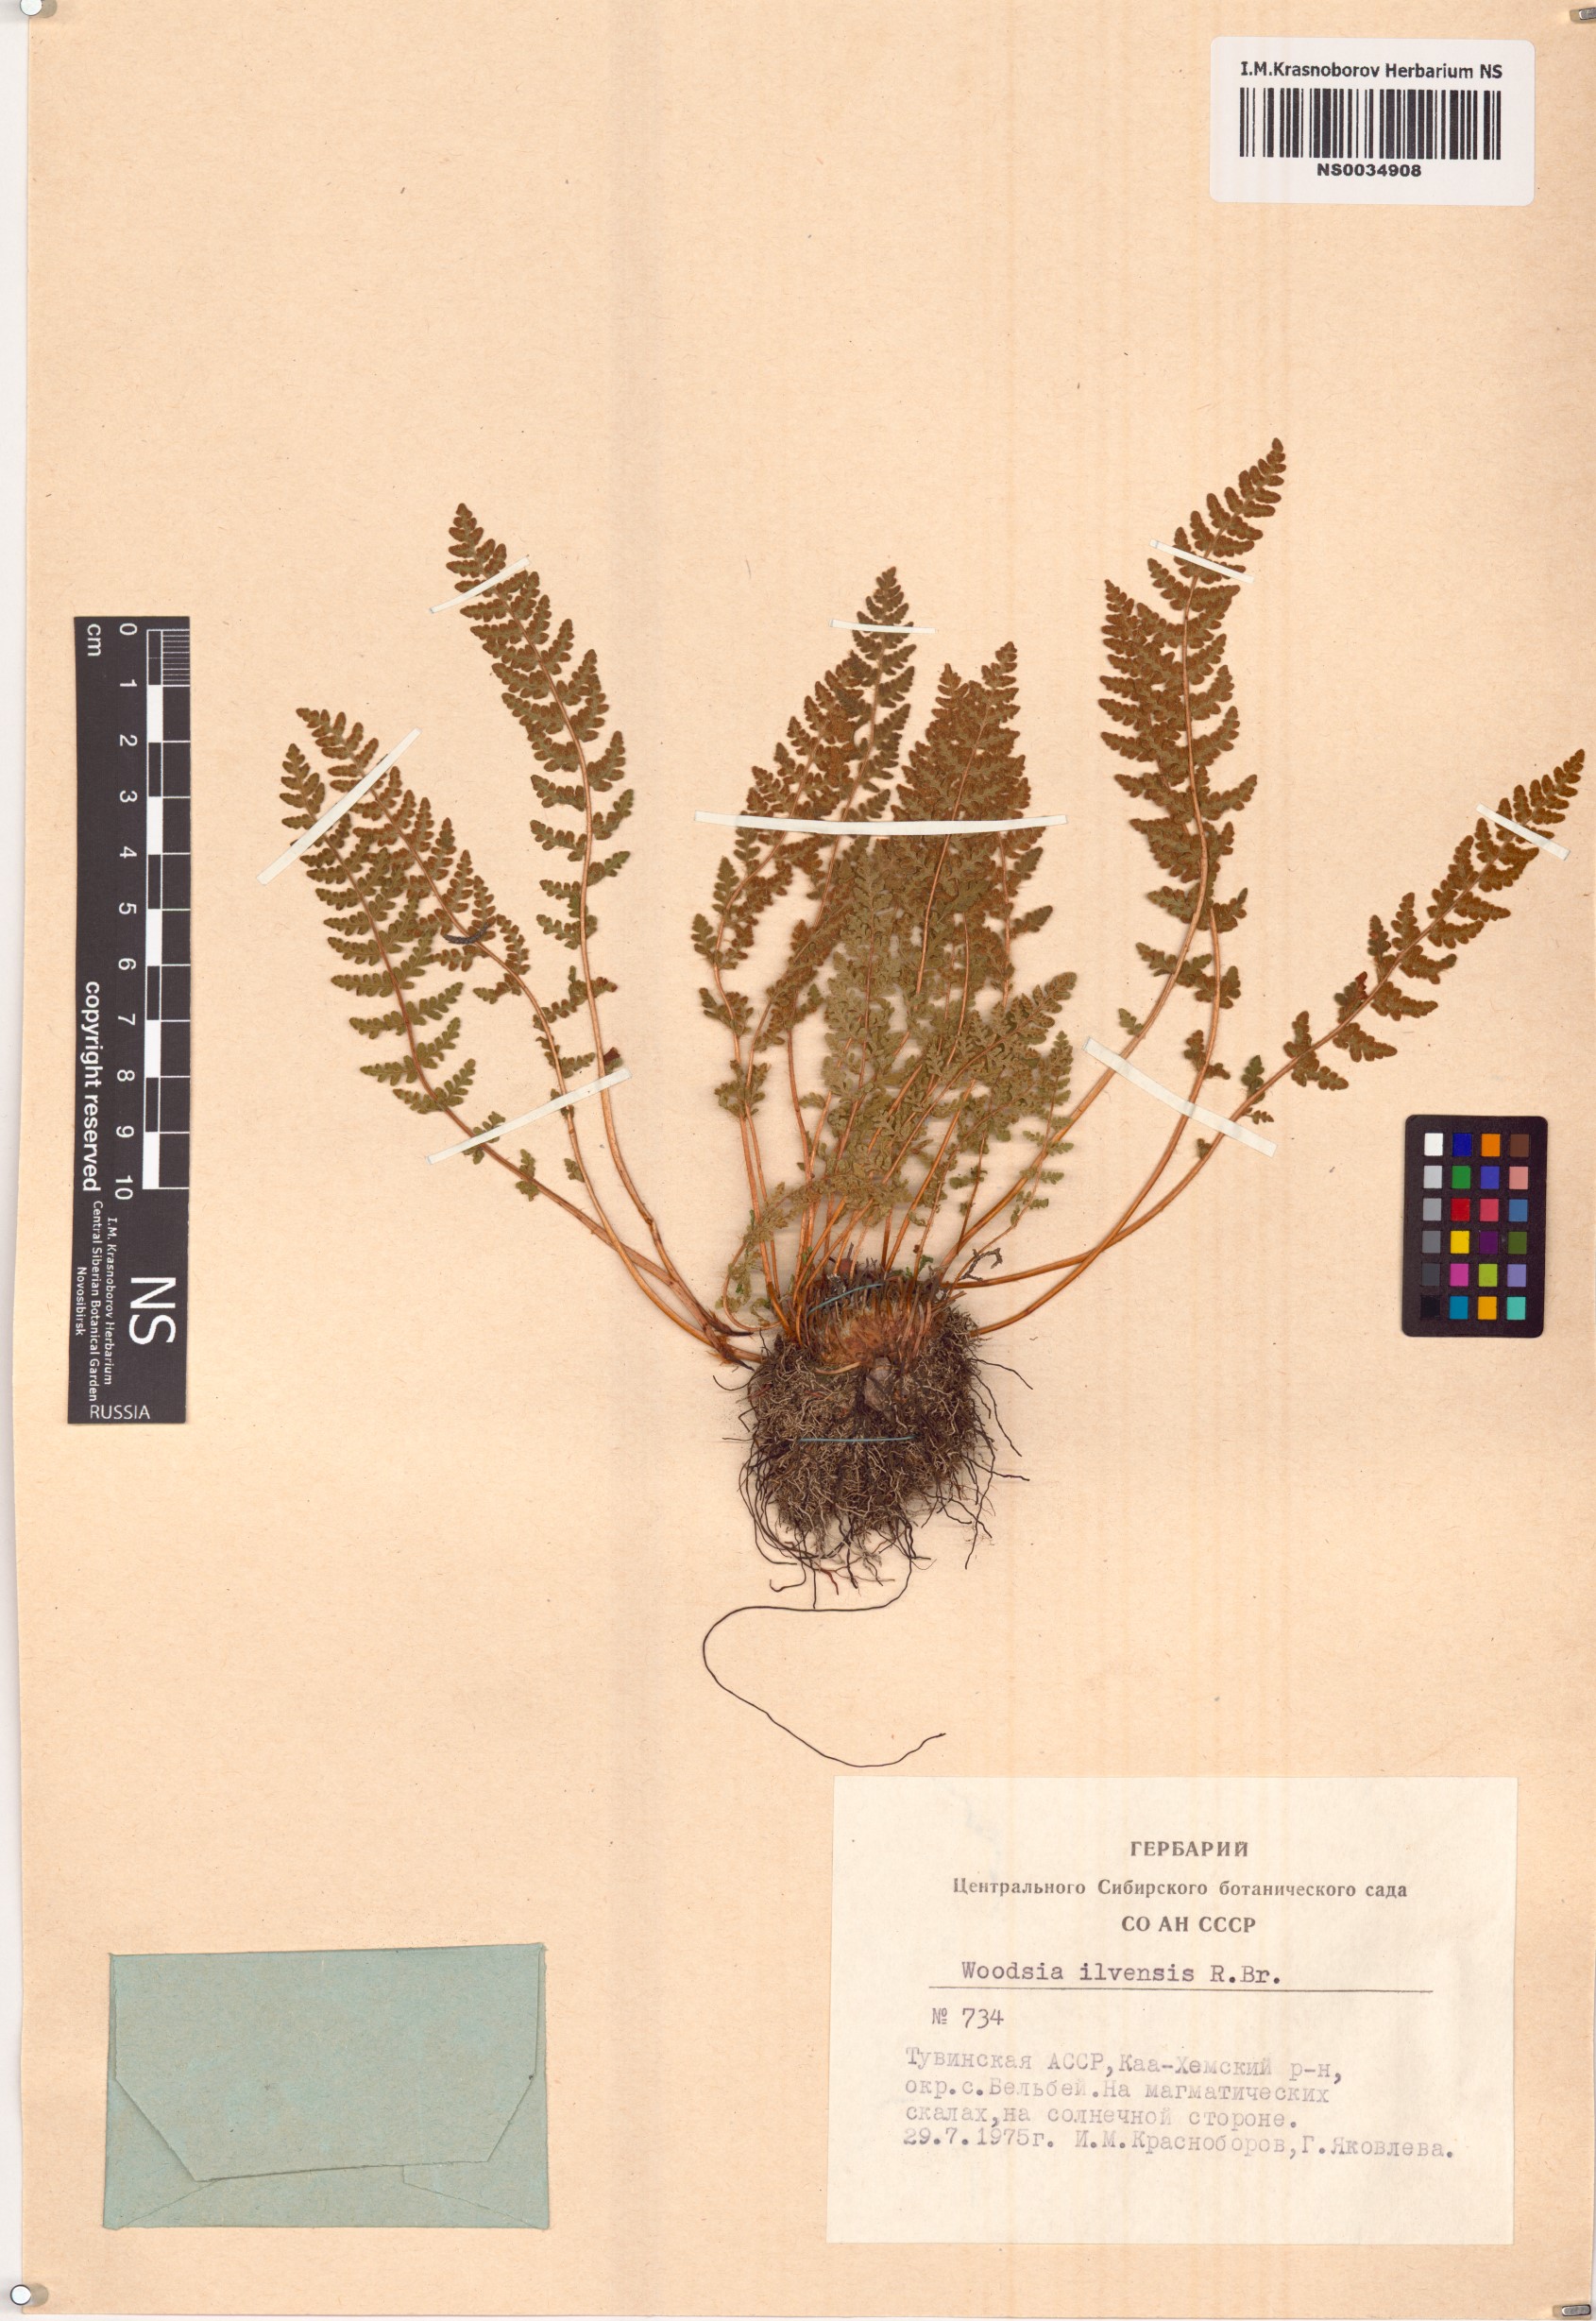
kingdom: Plantae
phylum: Tracheophyta
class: Polypodiopsida
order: Polypodiales
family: Woodsiaceae
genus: Woodsia
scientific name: Woodsia ilvensis
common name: Fragrant woodsia
